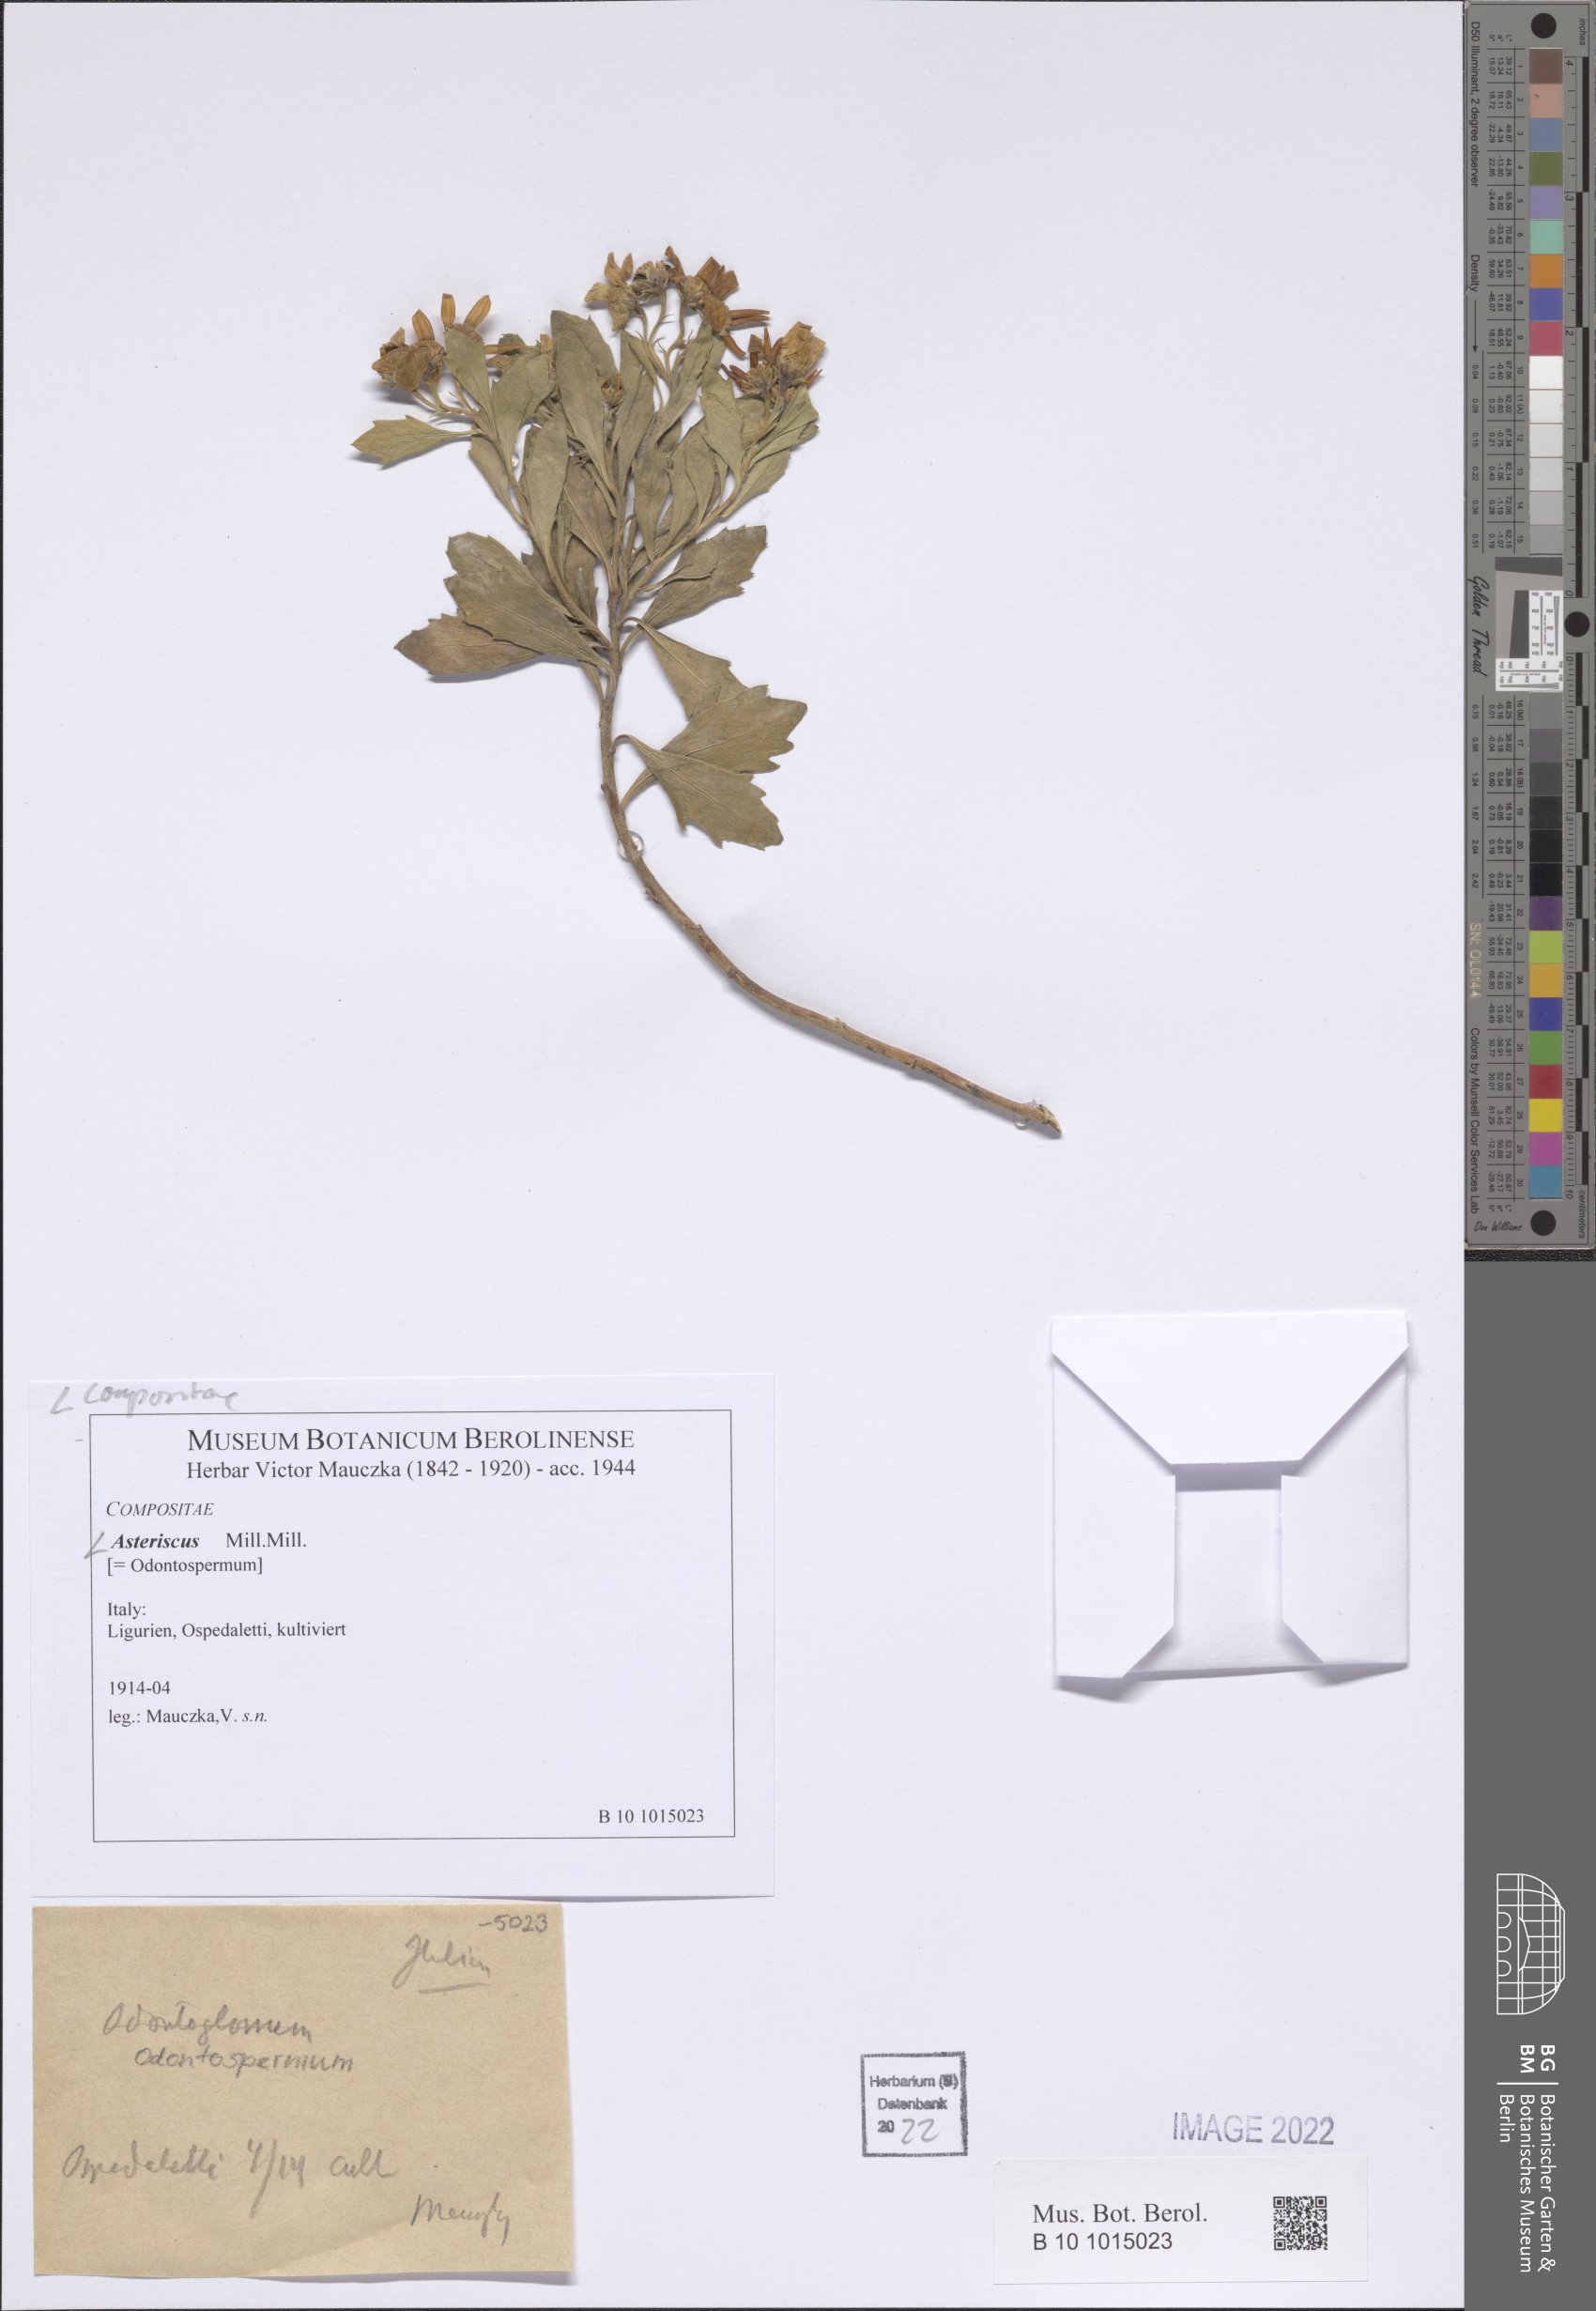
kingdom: Plantae
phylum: Tracheophyta
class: Magnoliopsida
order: Asterales
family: Asteraceae
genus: Asteriscus
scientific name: Asteriscus
